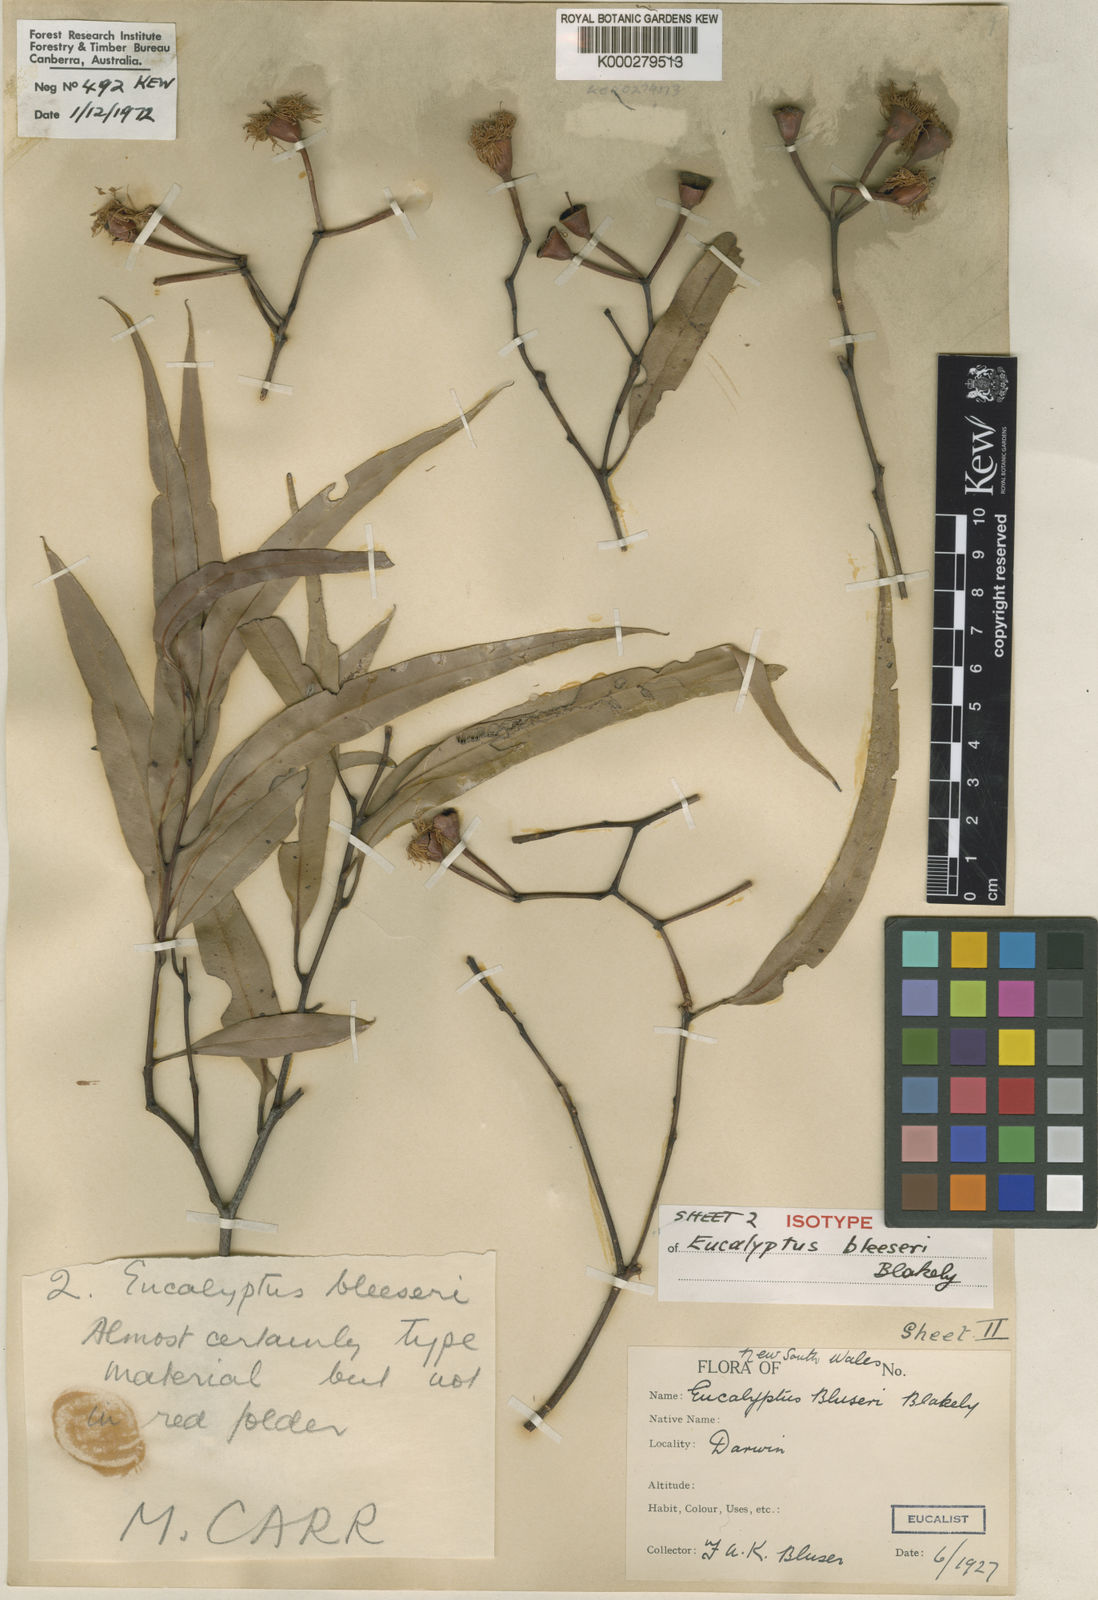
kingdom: Plantae
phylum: Tracheophyta
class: Magnoliopsida
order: Myrtales
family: Myrtaceae
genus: Corymbia
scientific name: Corymbia bleeseri
